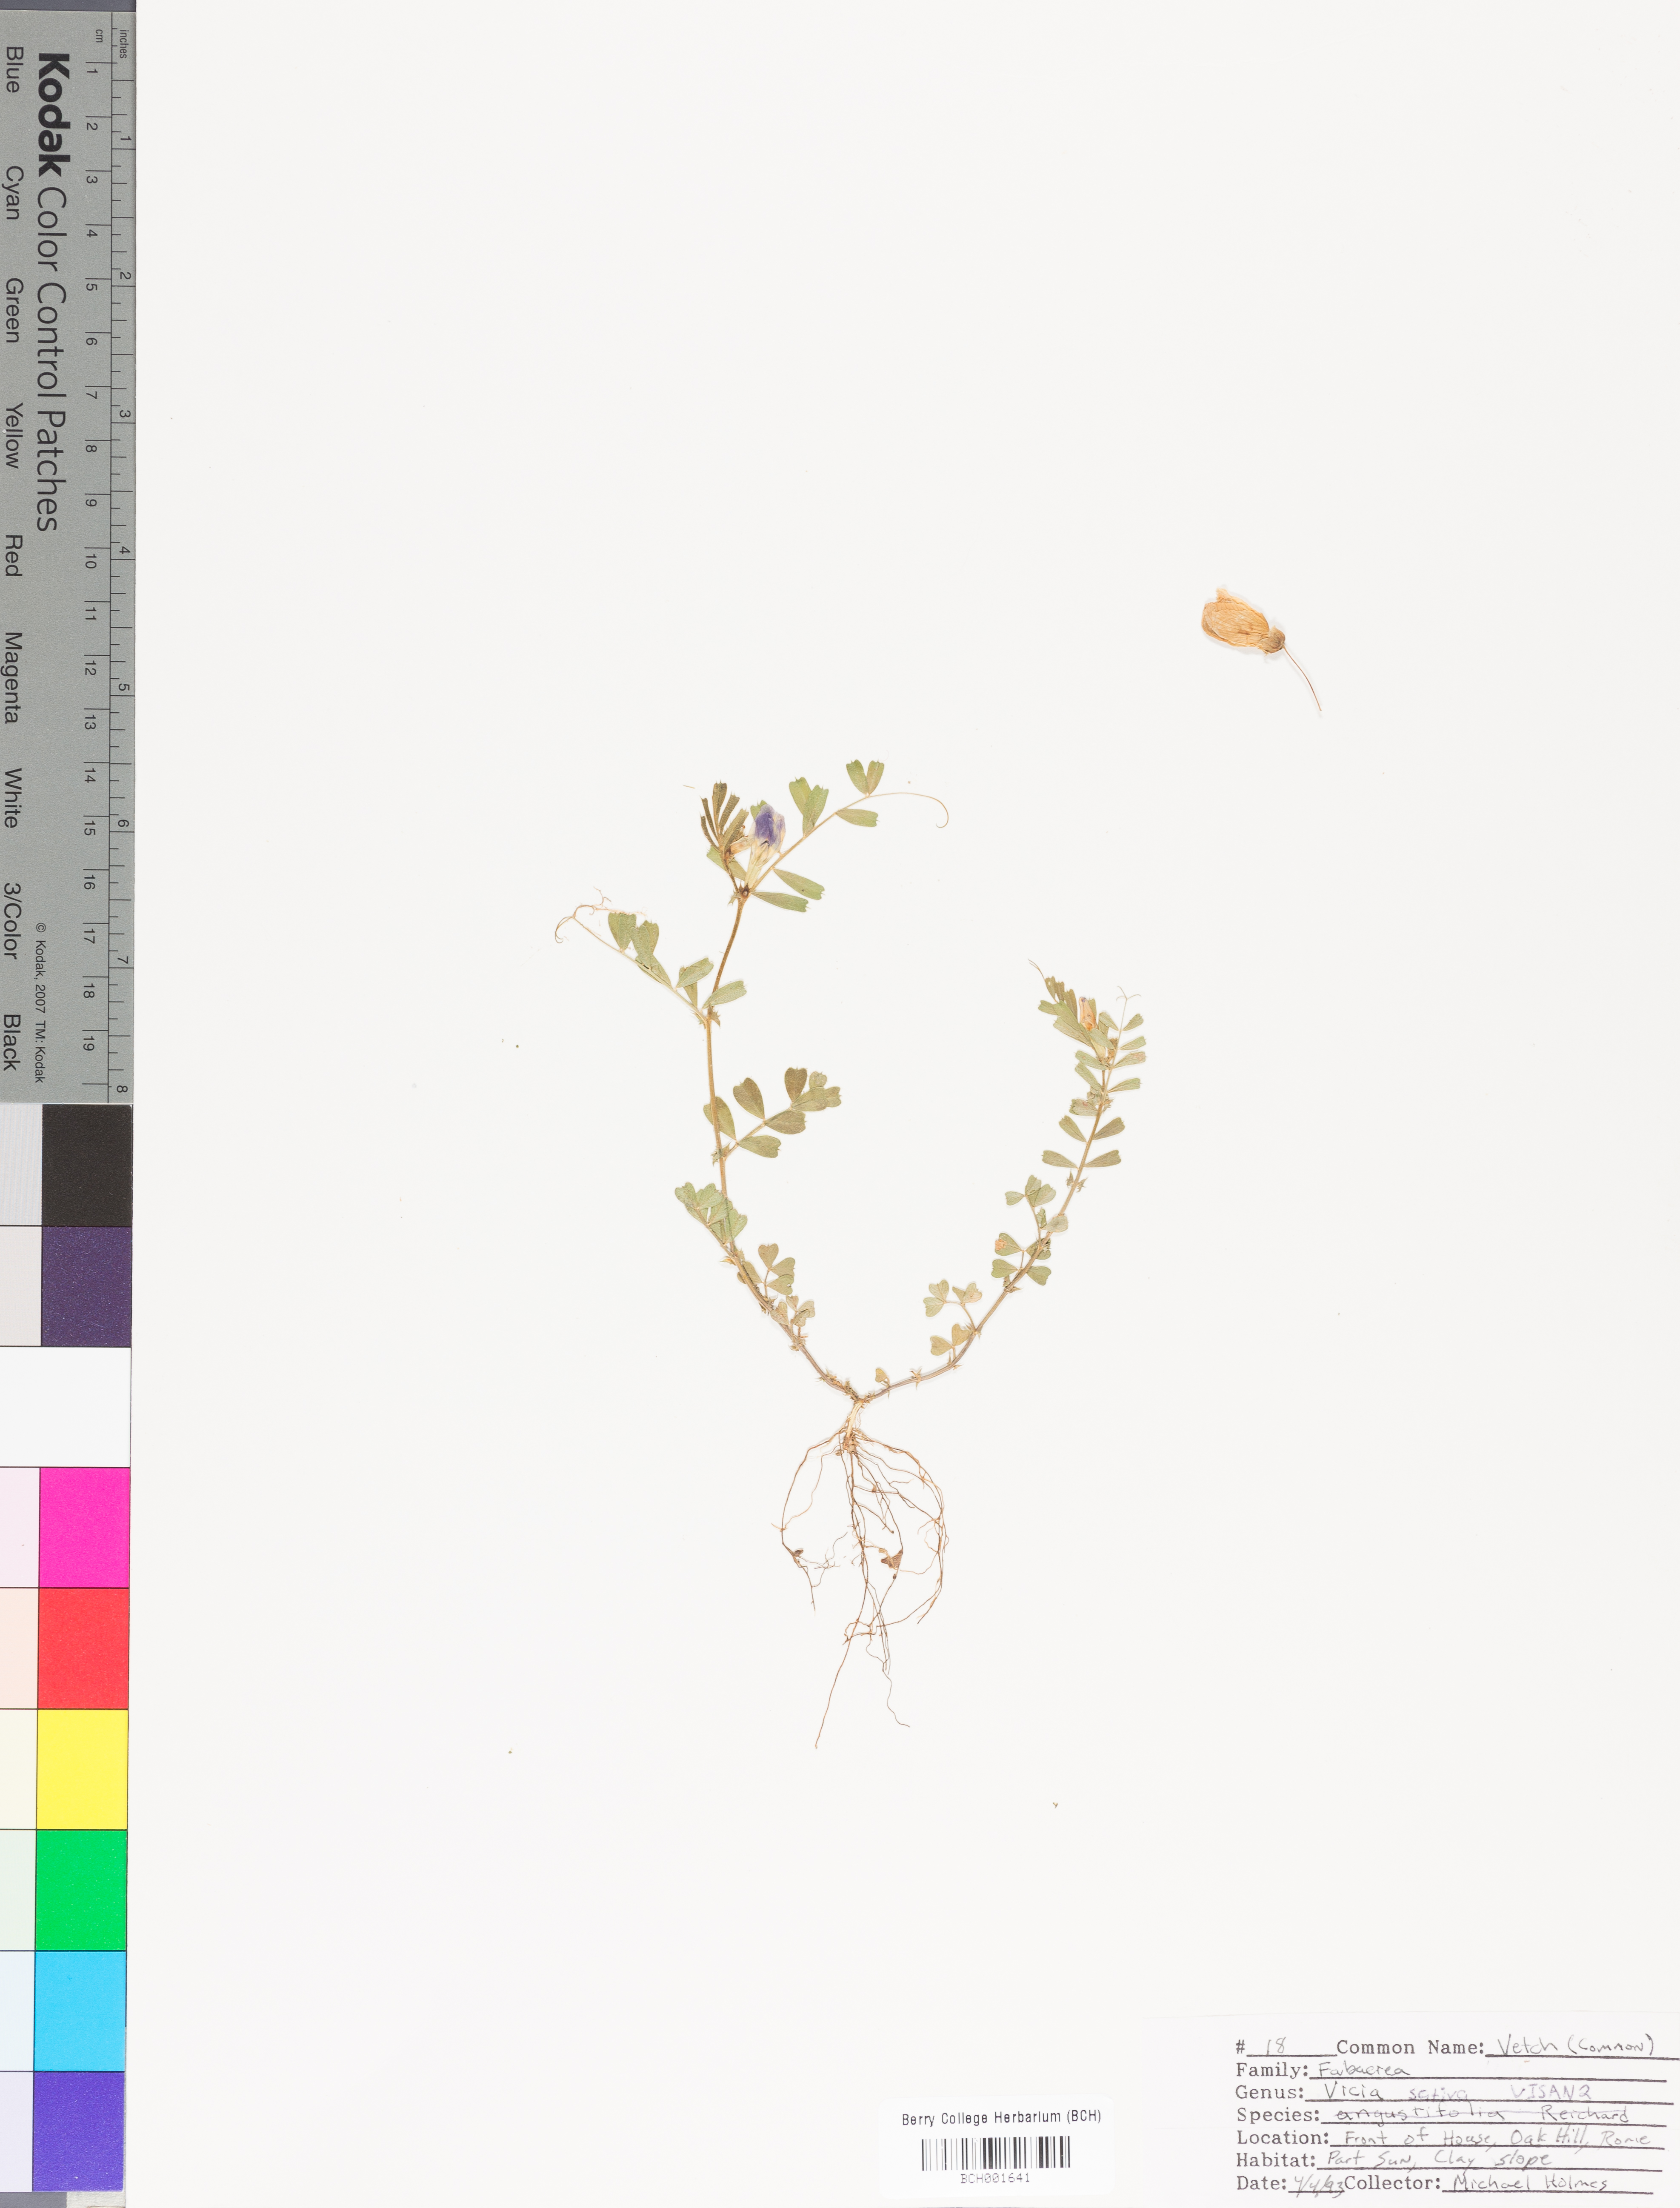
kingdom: Plantae
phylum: Tracheophyta
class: Magnoliopsida
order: Fabales
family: Fabaceae
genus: Vicia
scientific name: Vicia sativa
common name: Garden vetch
